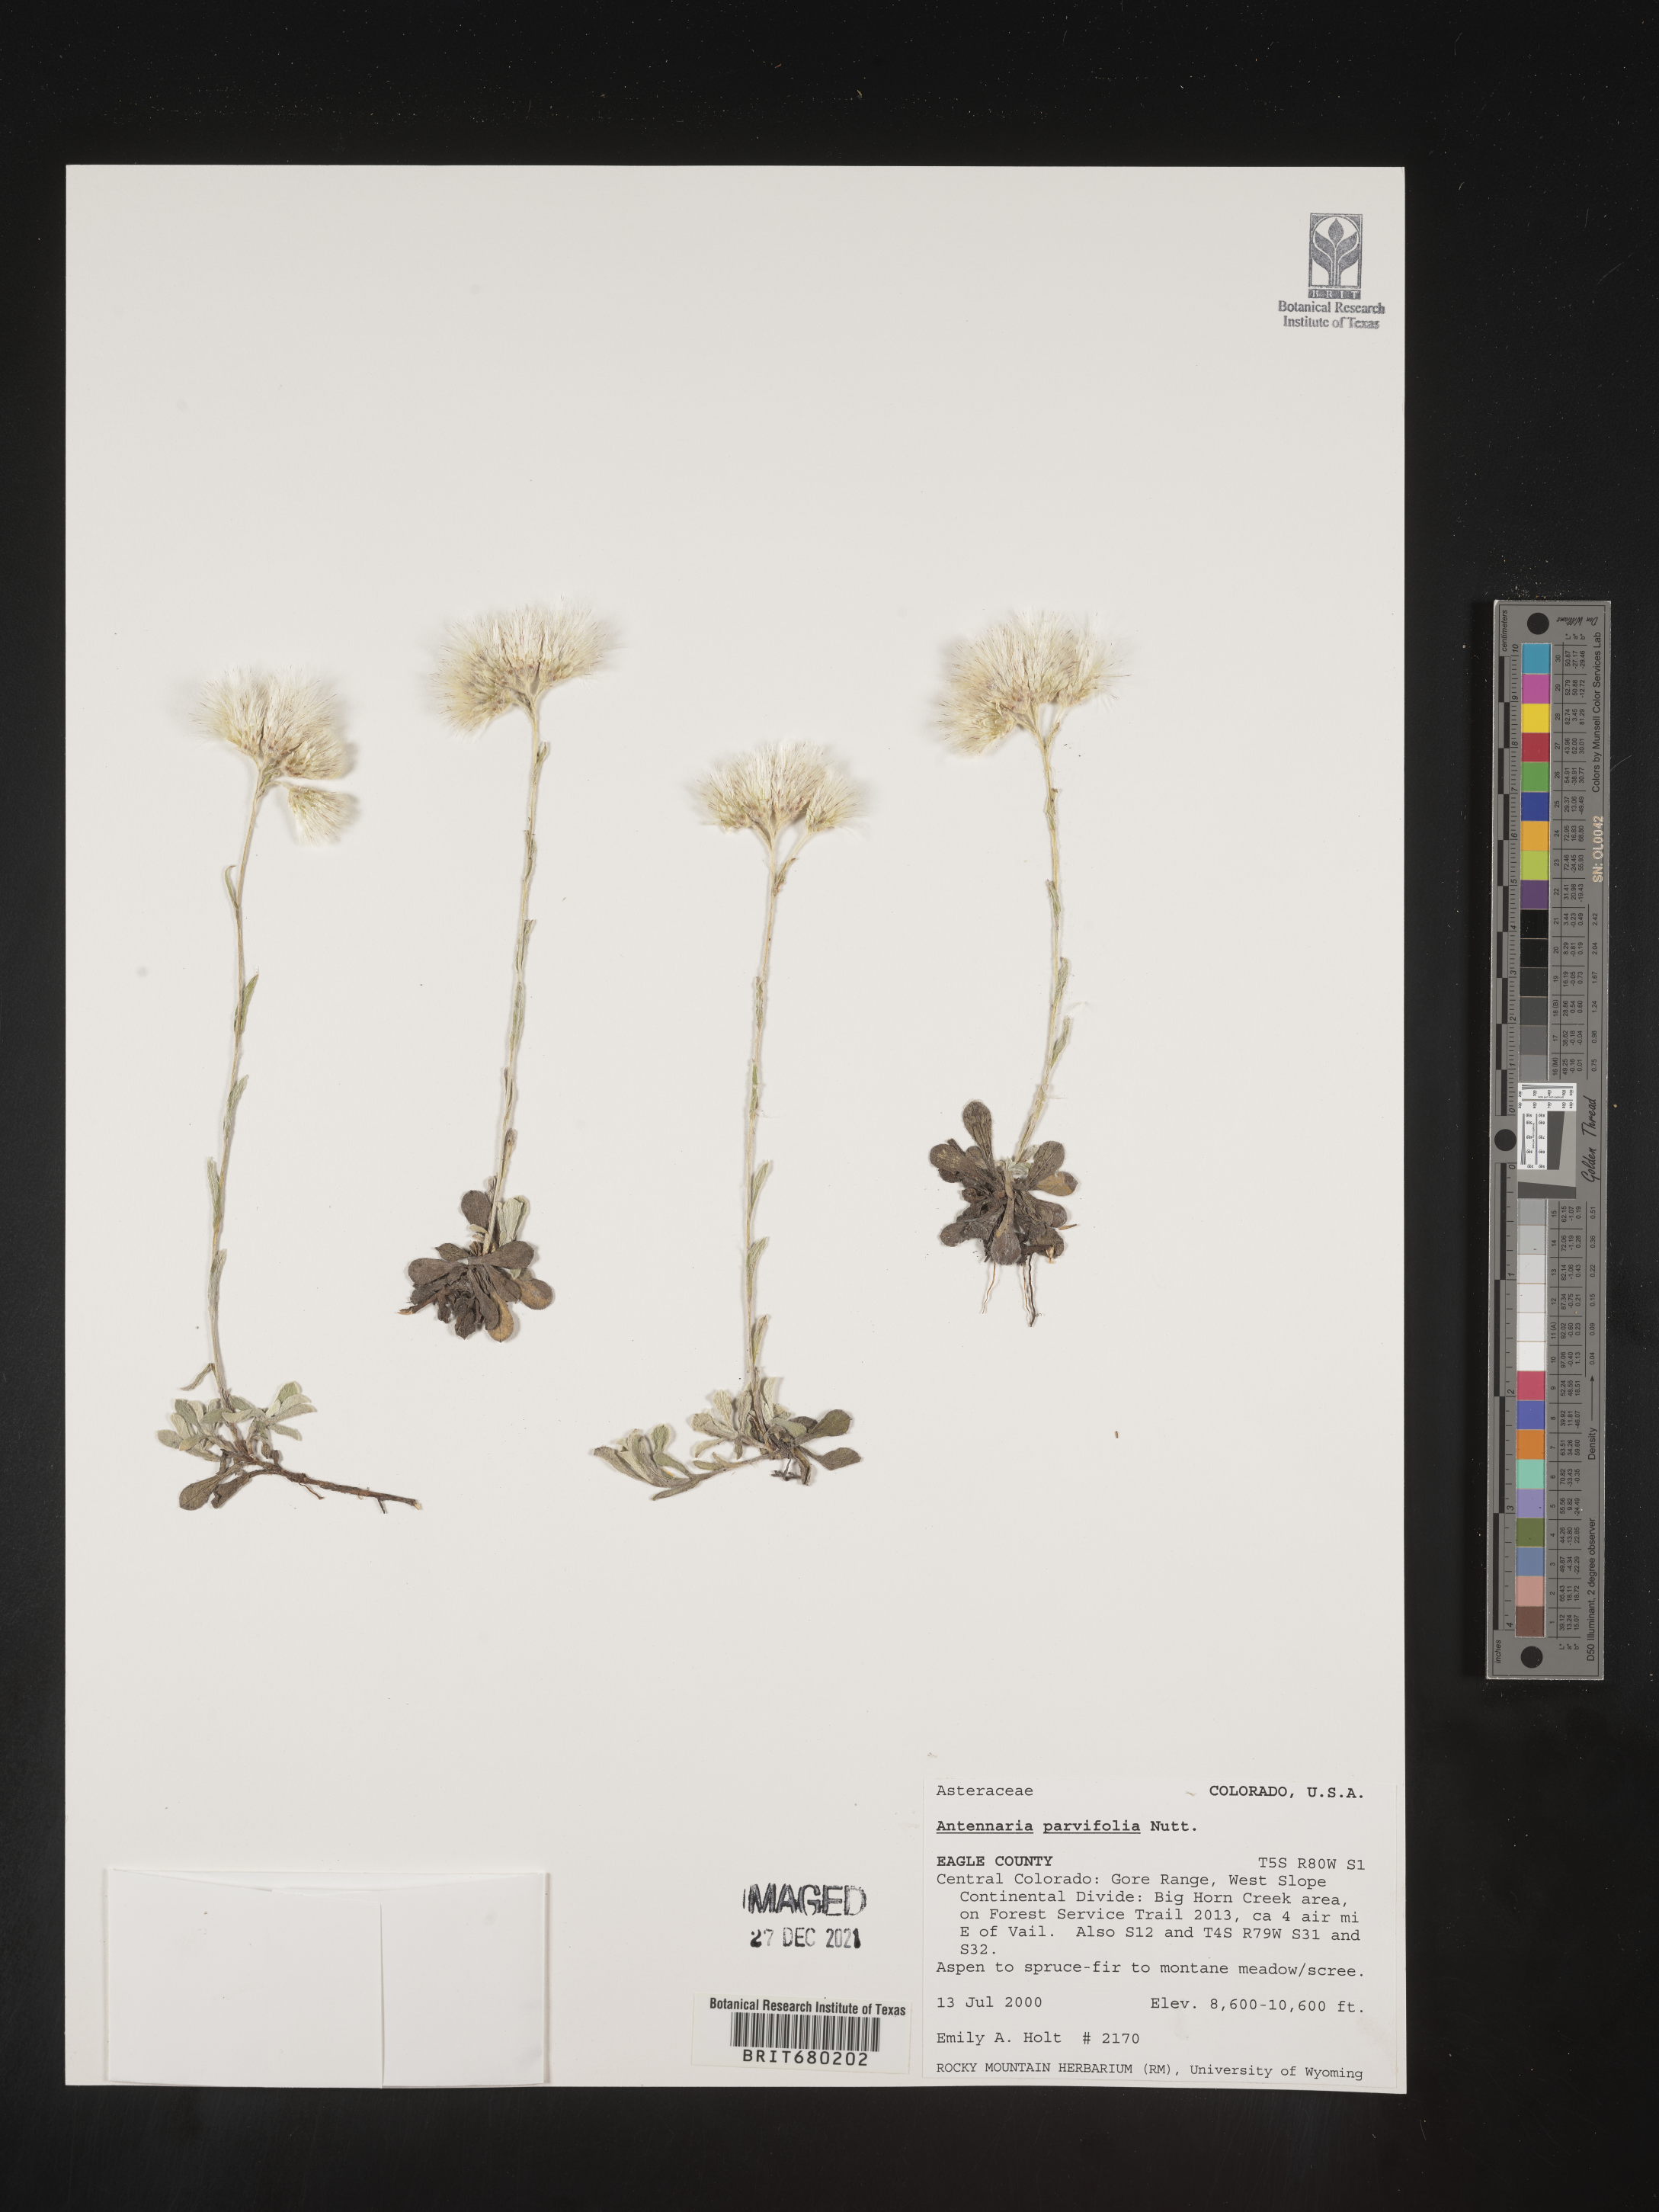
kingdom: Plantae
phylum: Tracheophyta
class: Magnoliopsida
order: Asterales
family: Asteraceae
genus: Antennaria
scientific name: Antennaria plantaginifolia
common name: Plantain-leaved pussytoes
